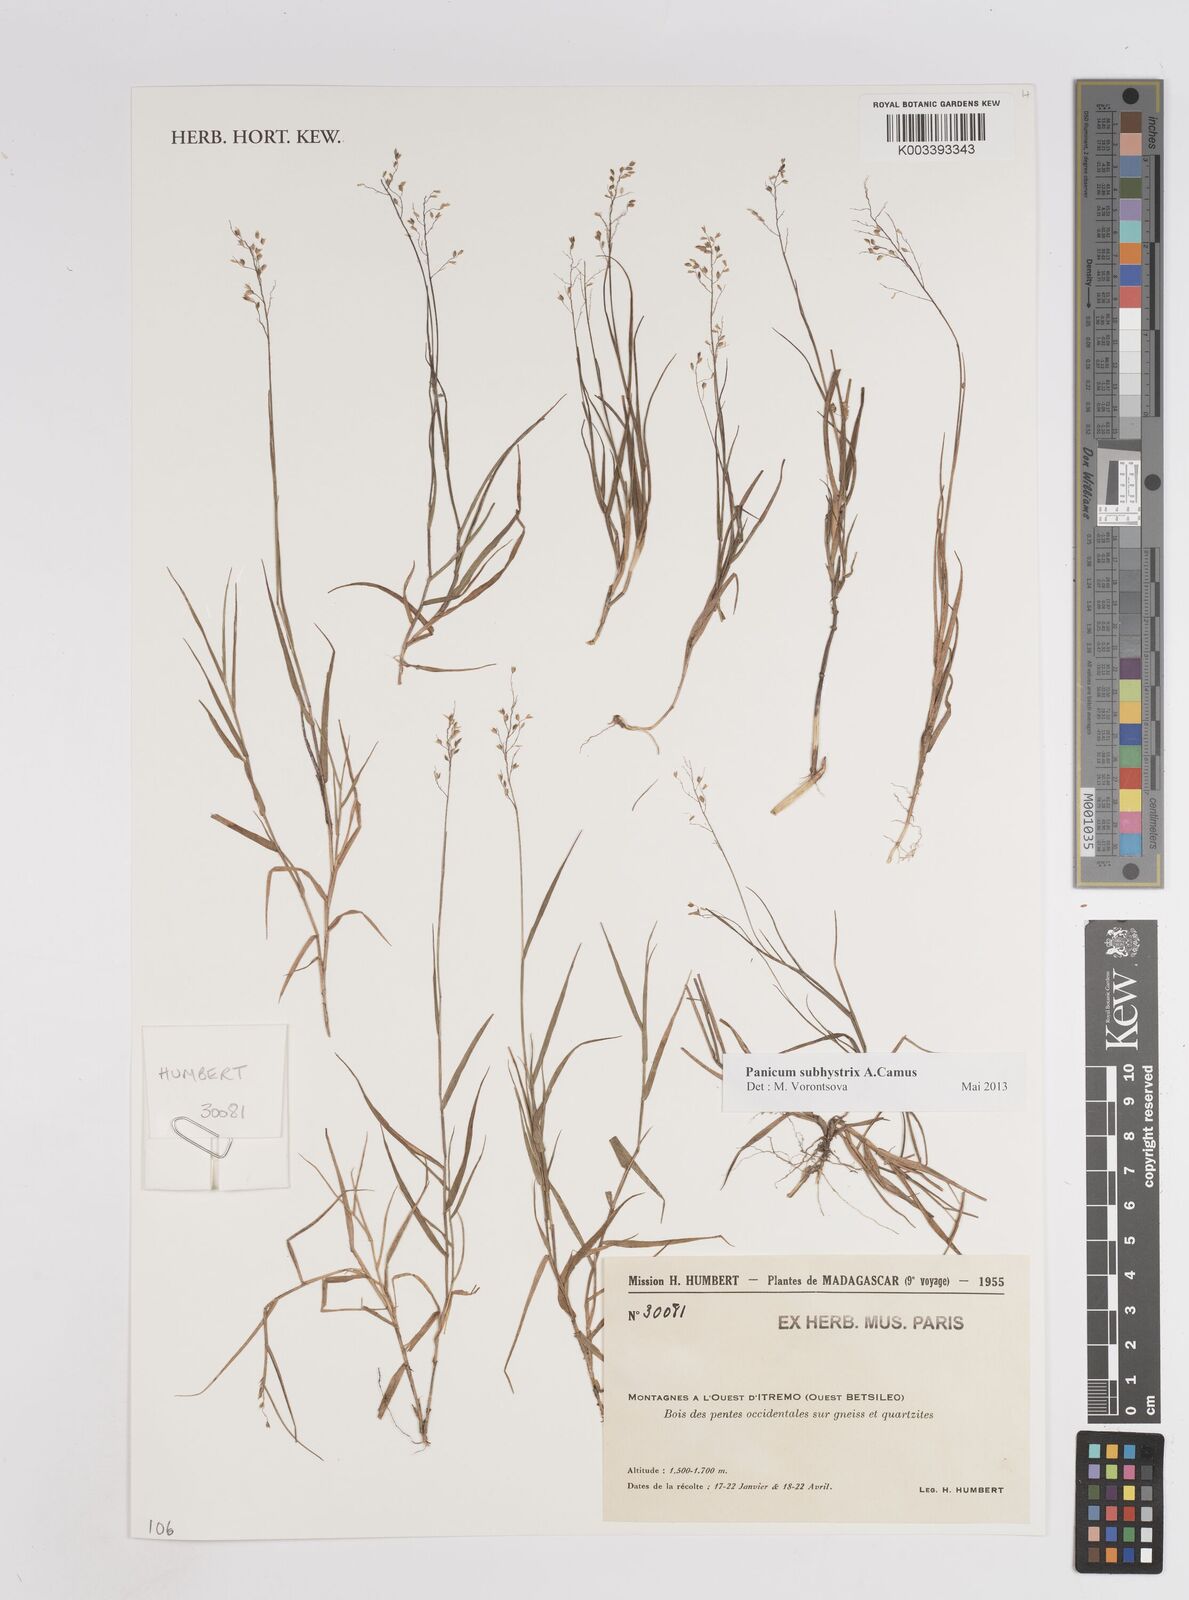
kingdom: Plantae
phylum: Tracheophyta
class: Liliopsida
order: Poales
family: Poaceae
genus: Panicum
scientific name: Panicum subhystrix
